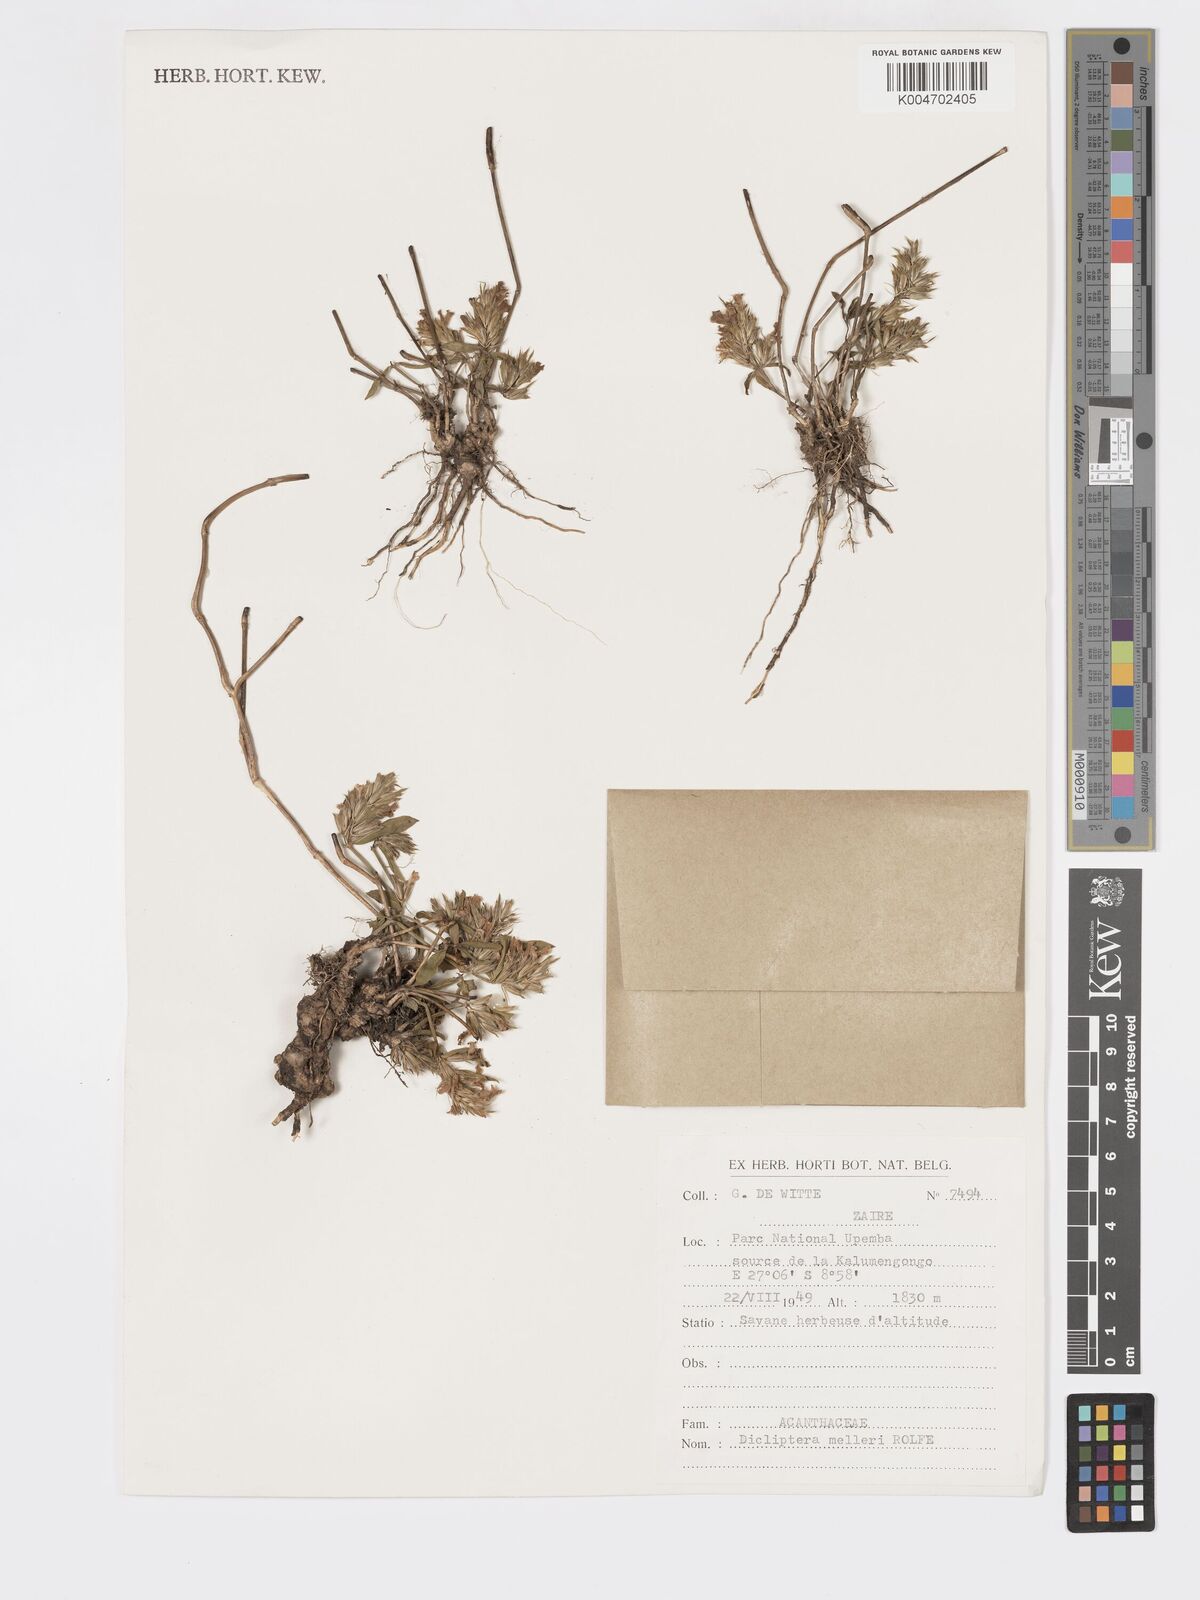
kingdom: Plantae
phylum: Tracheophyta
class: Magnoliopsida
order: Lamiales
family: Acanthaceae
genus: Dicliptera
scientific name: Dicliptera melleri
